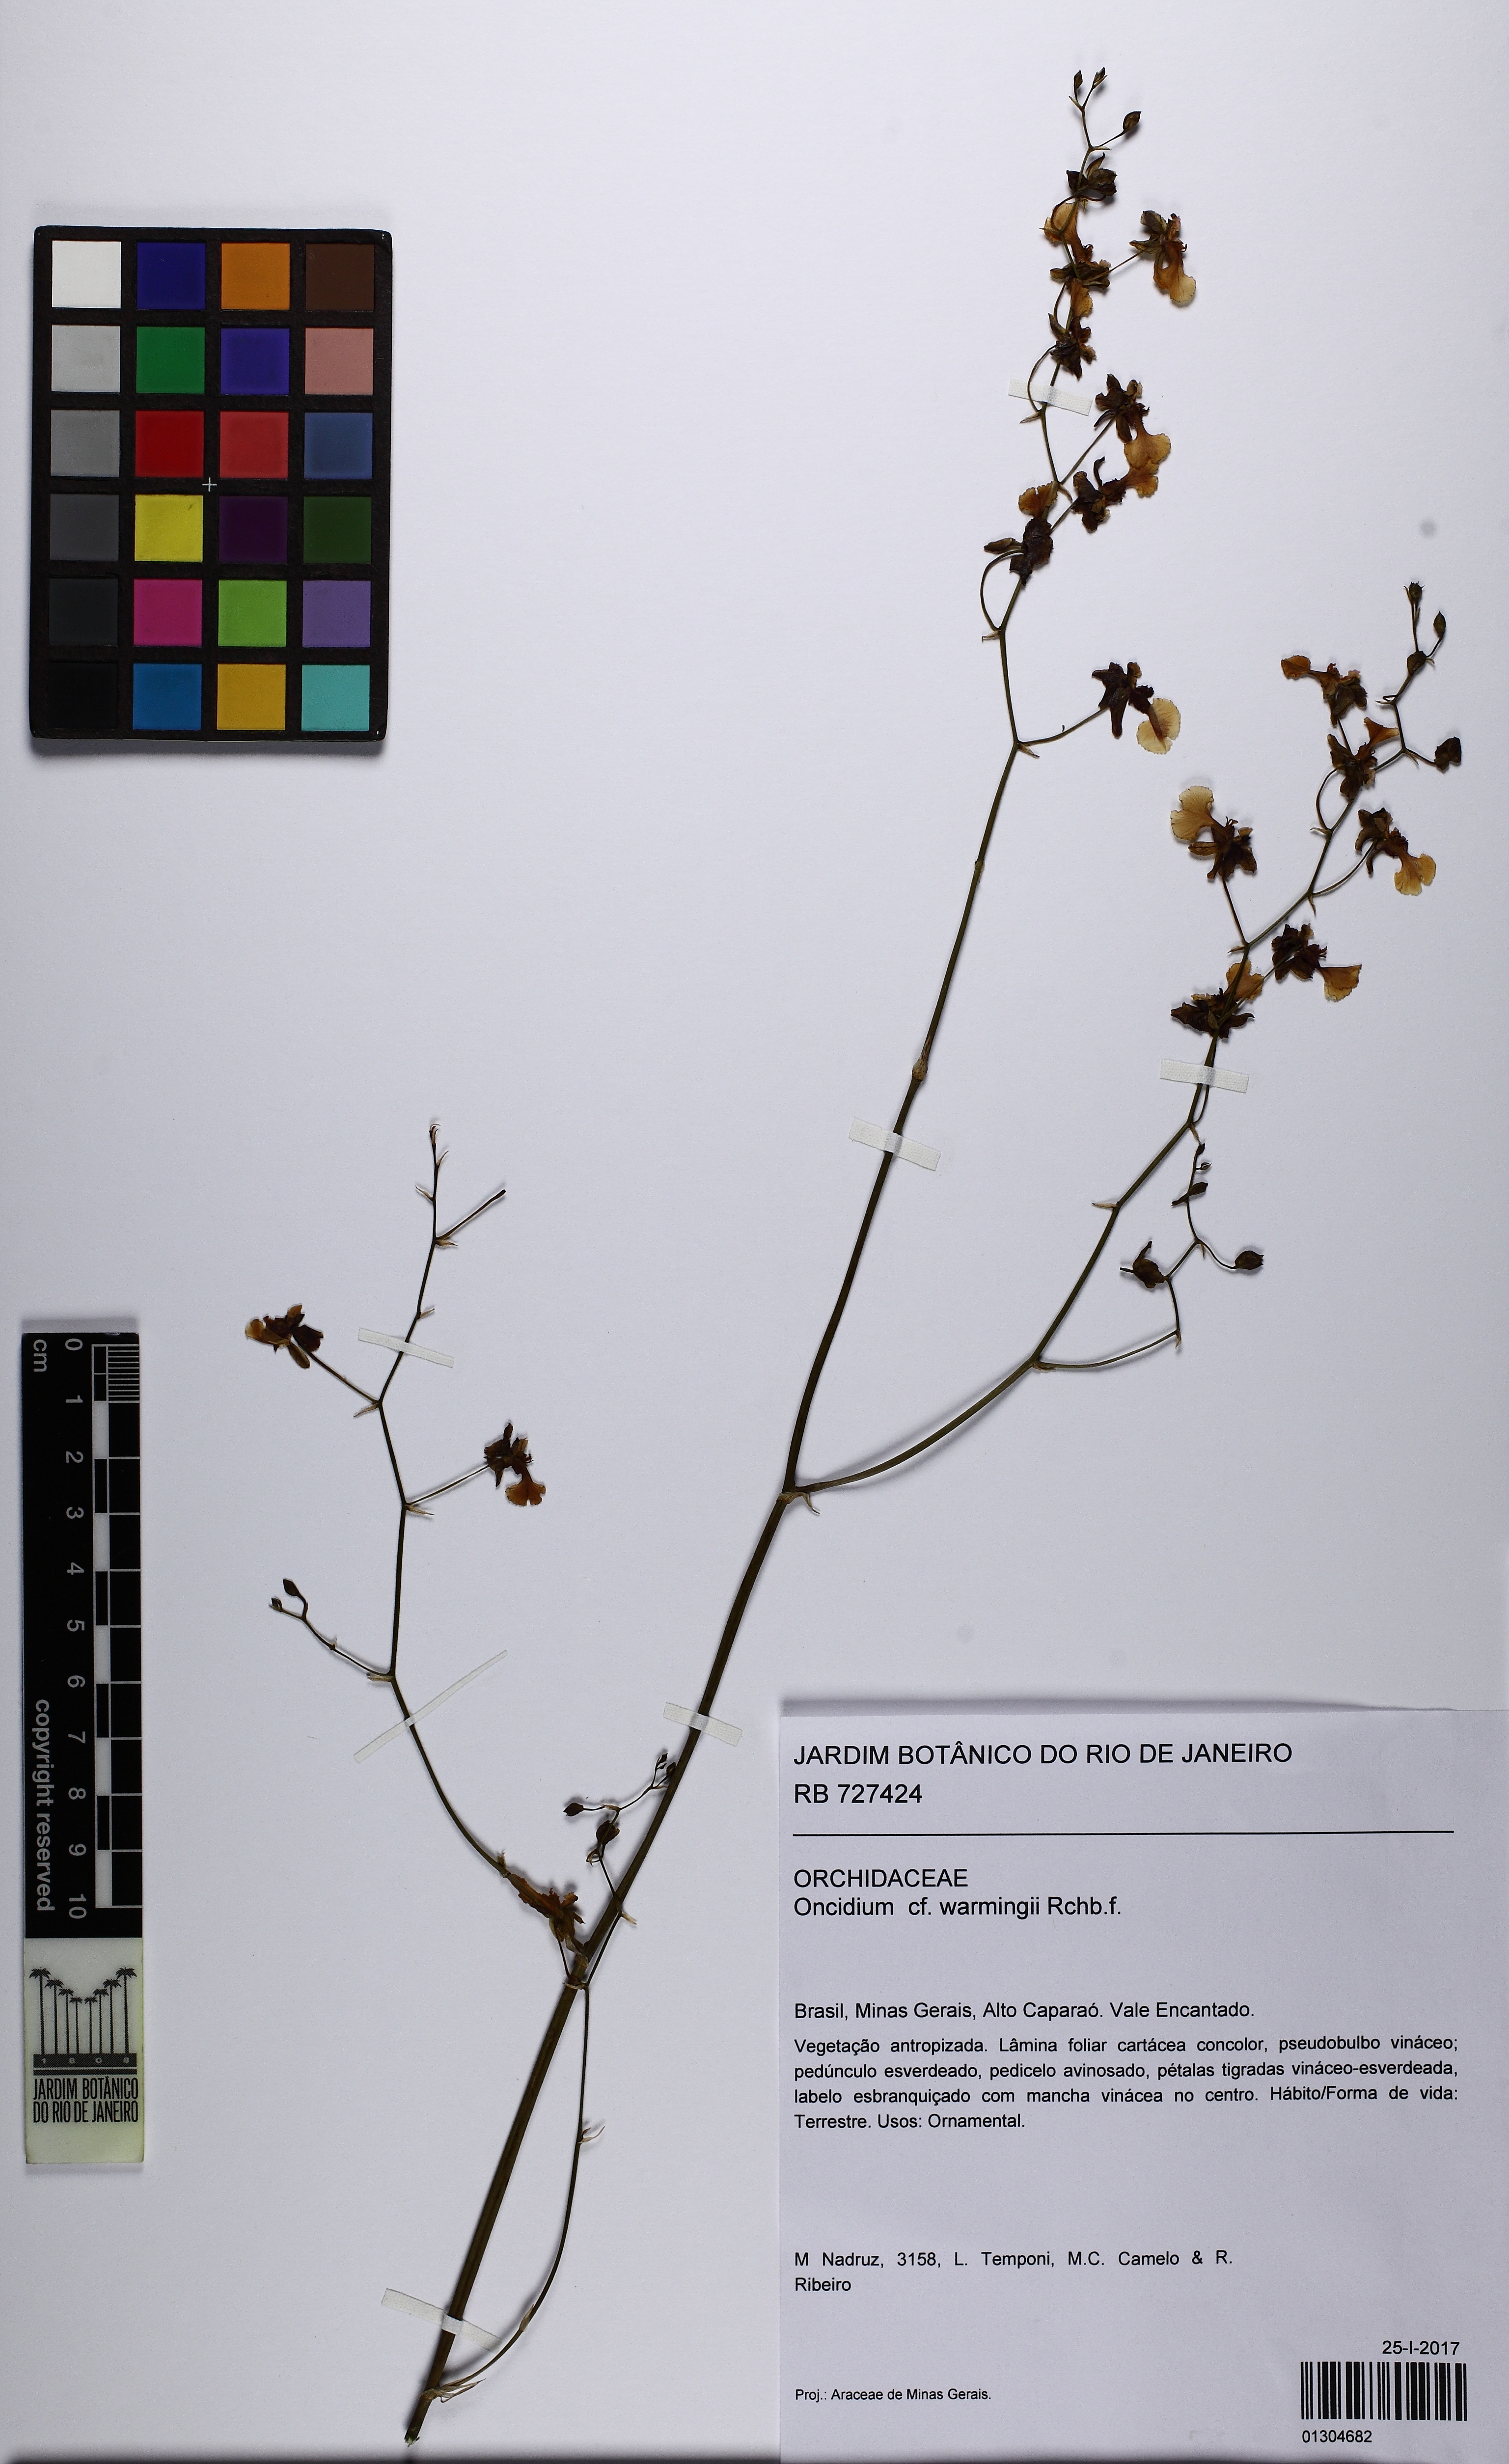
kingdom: Plantae
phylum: Tracheophyta
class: Liliopsida
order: Asparagales
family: Orchidaceae
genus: Gomesa
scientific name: Gomesa warmingii
